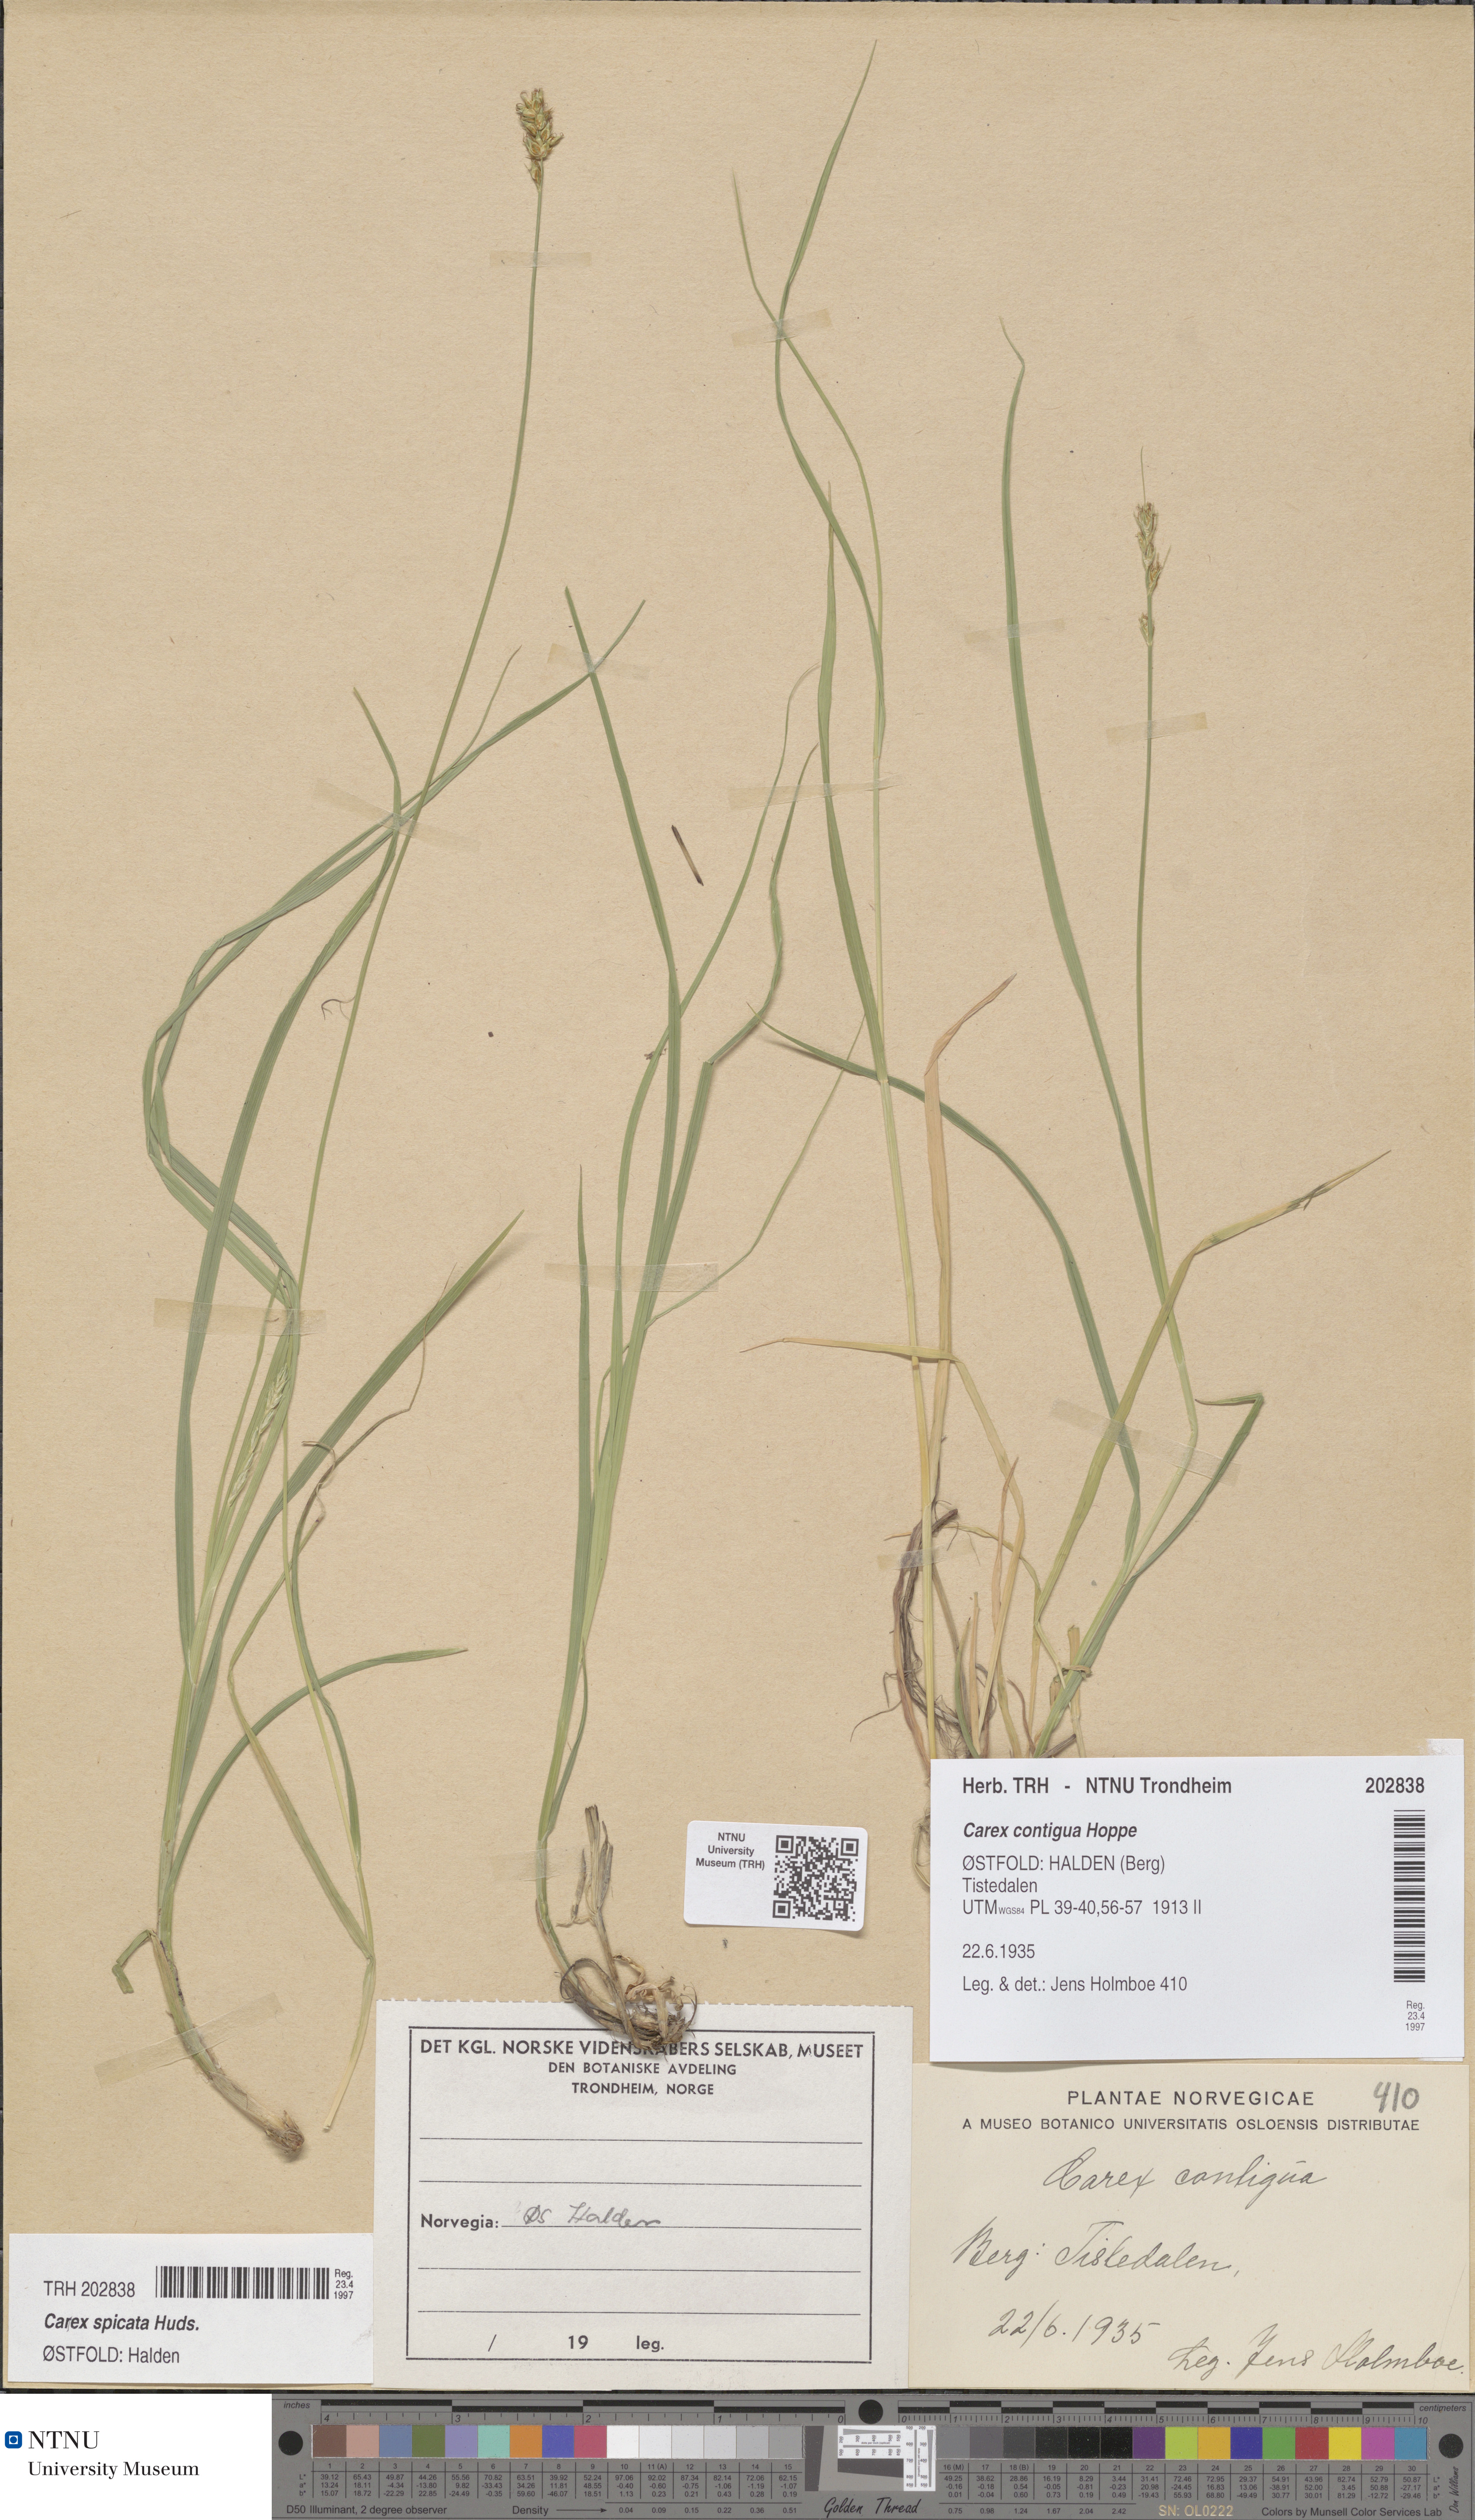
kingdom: Plantae
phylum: Tracheophyta
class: Liliopsida
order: Poales
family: Cyperaceae
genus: Carex
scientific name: Carex spicata
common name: Spiked sedge
